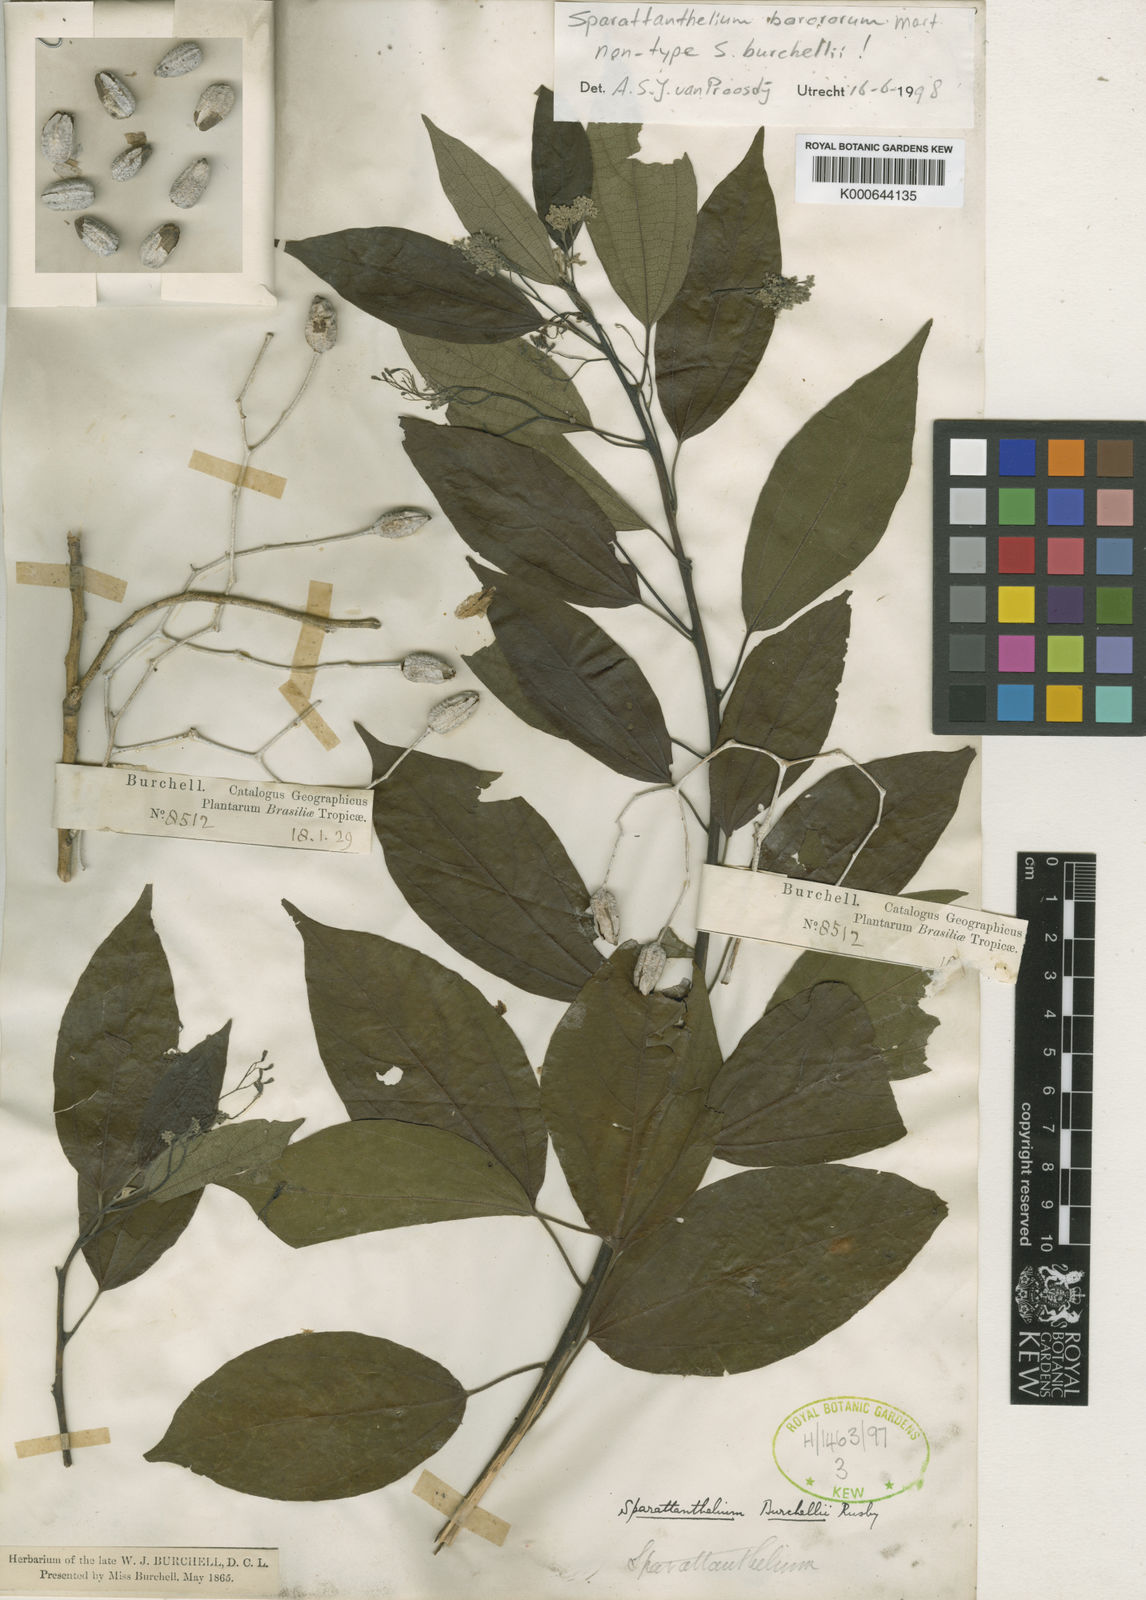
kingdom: Plantae
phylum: Tracheophyta
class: Magnoliopsida
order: Laurales
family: Hernandiaceae
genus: Sparattanthelium
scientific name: Sparattanthelium borororum
